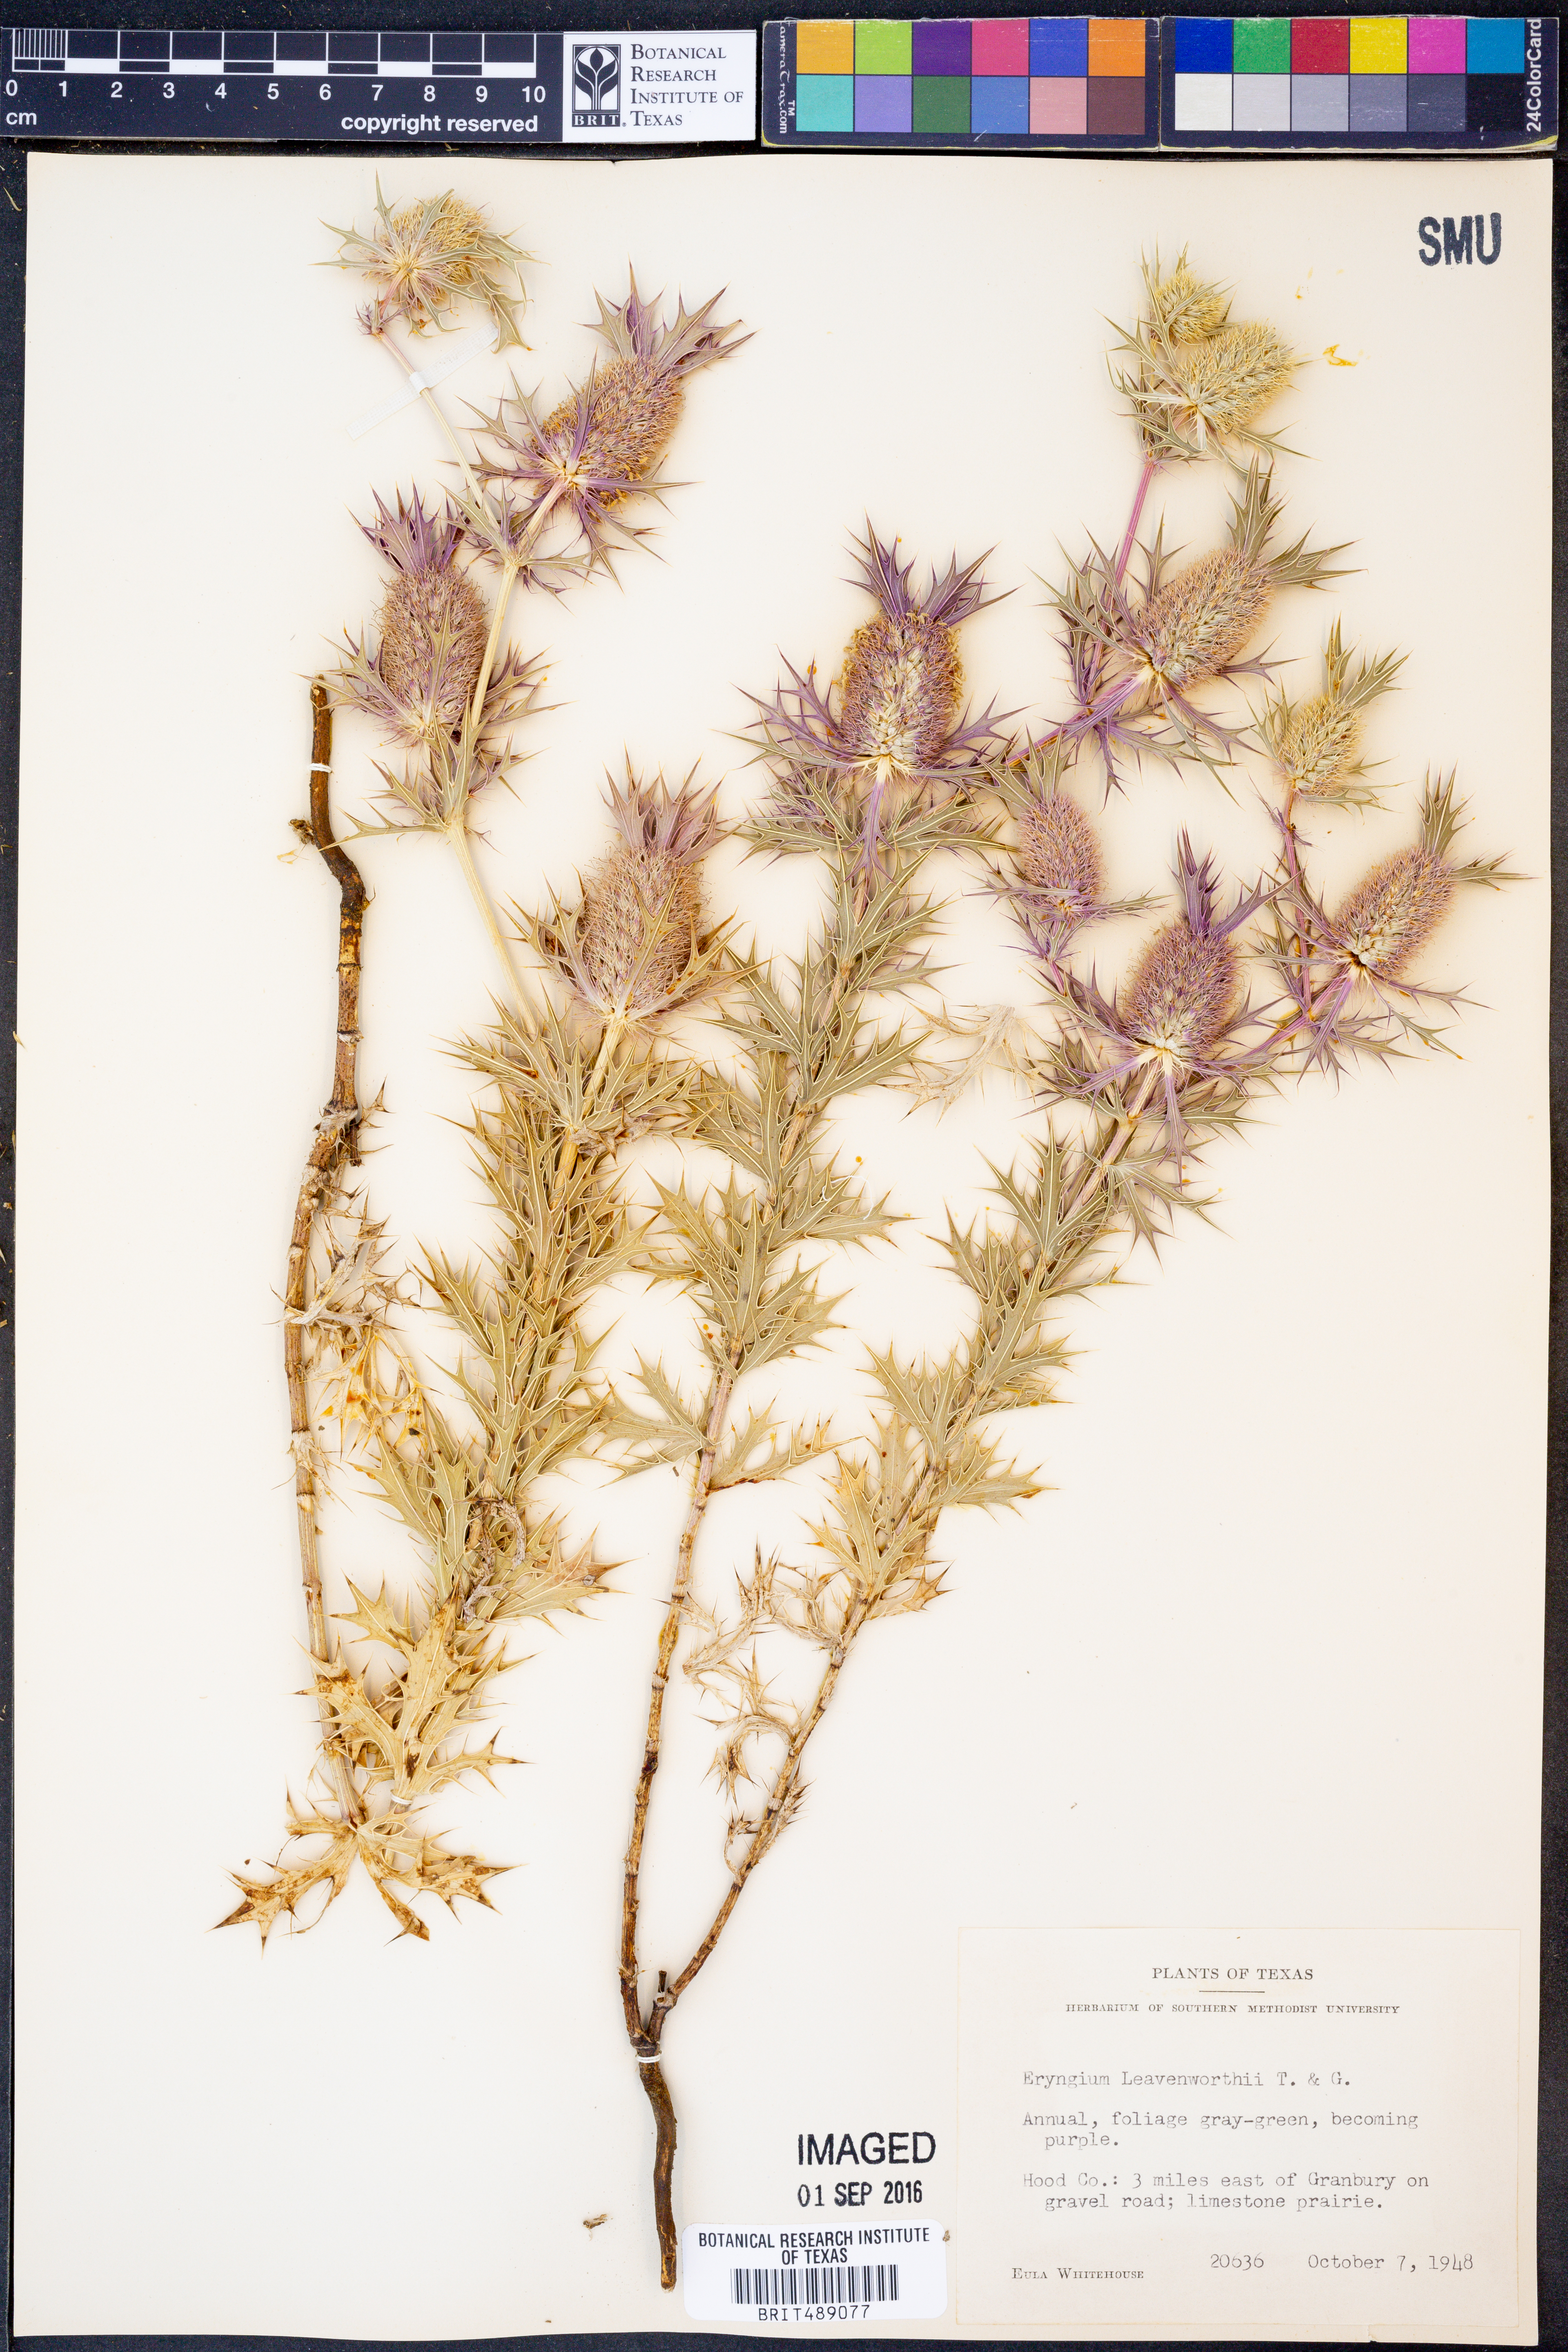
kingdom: Plantae
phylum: Tracheophyta
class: Magnoliopsida
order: Apiales
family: Apiaceae
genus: Eryngium
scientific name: Eryngium leavenworthii
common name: Leavenworth's eryngo
